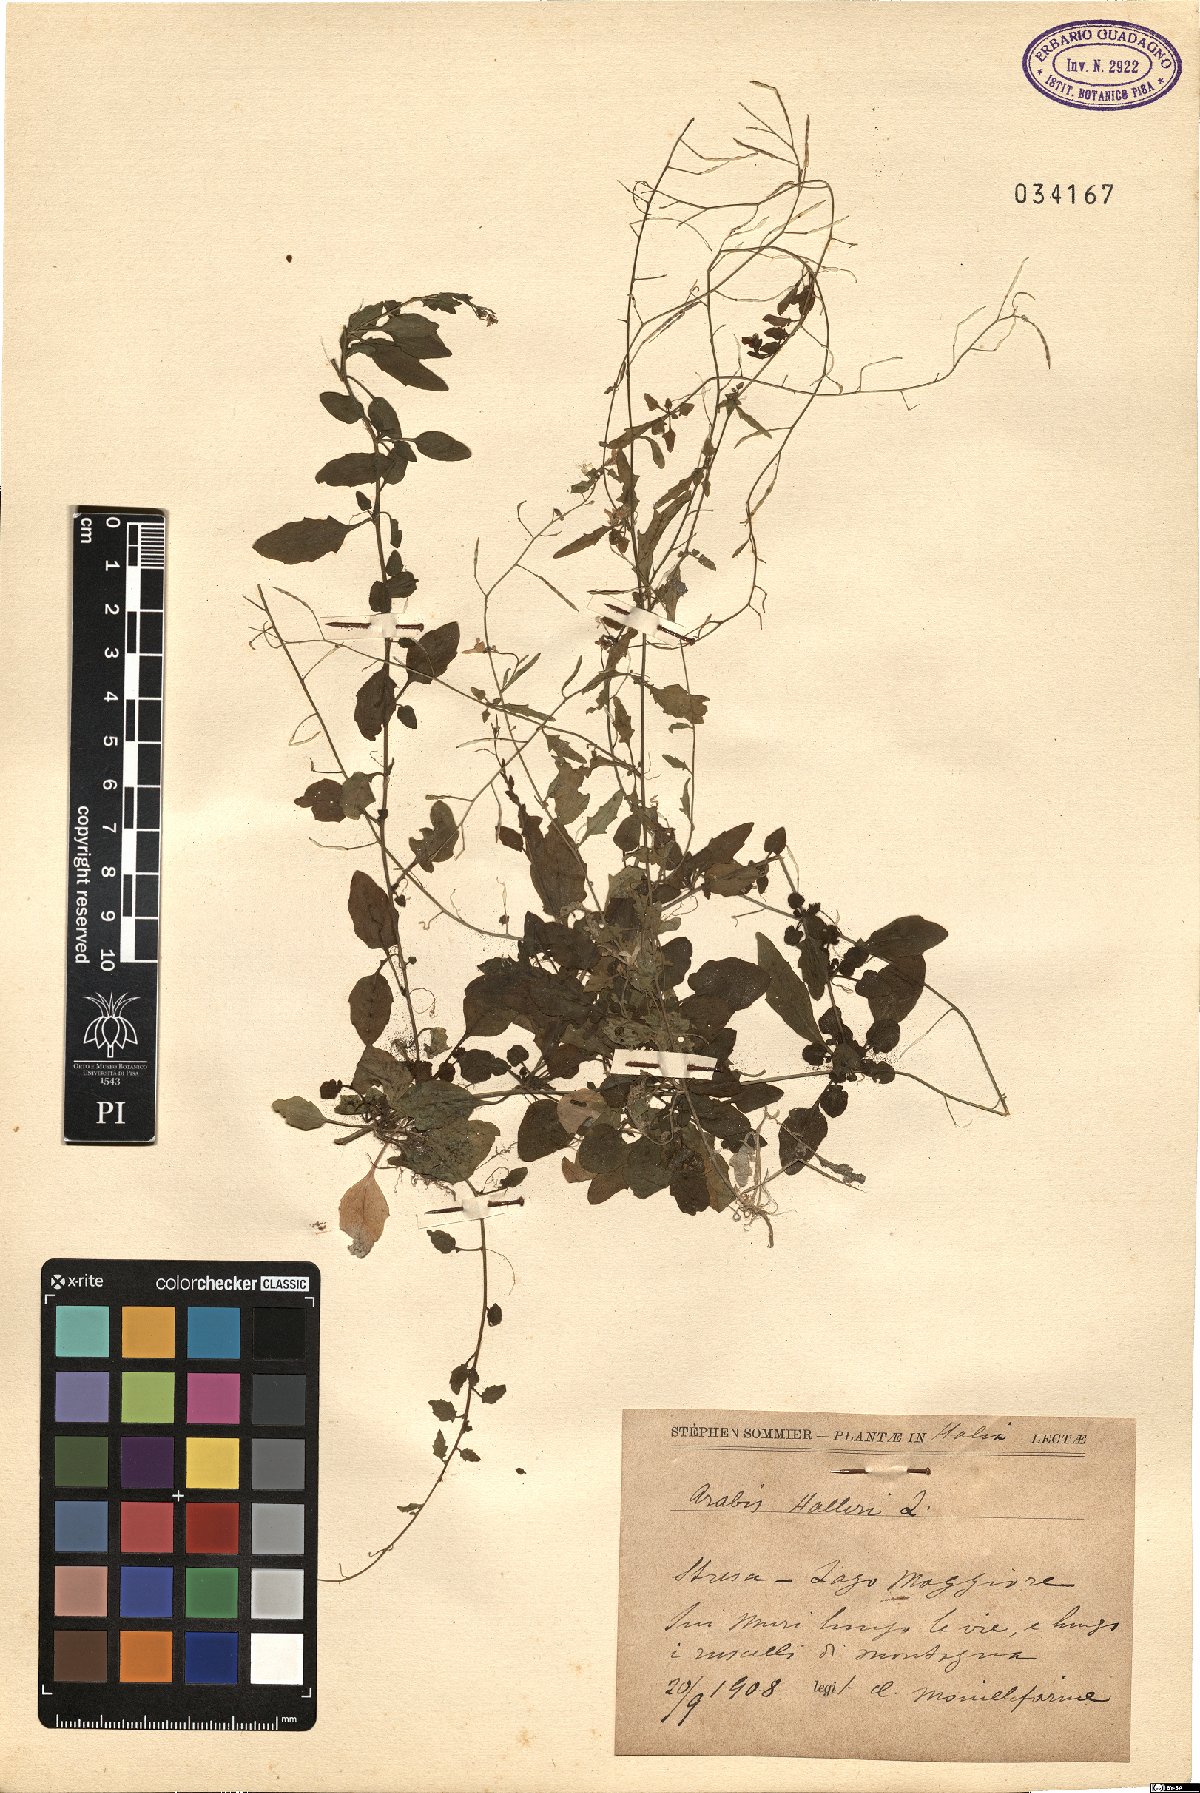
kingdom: Plantae
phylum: Tracheophyta
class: Magnoliopsida
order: Brassicales
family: Brassicaceae
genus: Arabidopsis
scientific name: Arabidopsis halleri
